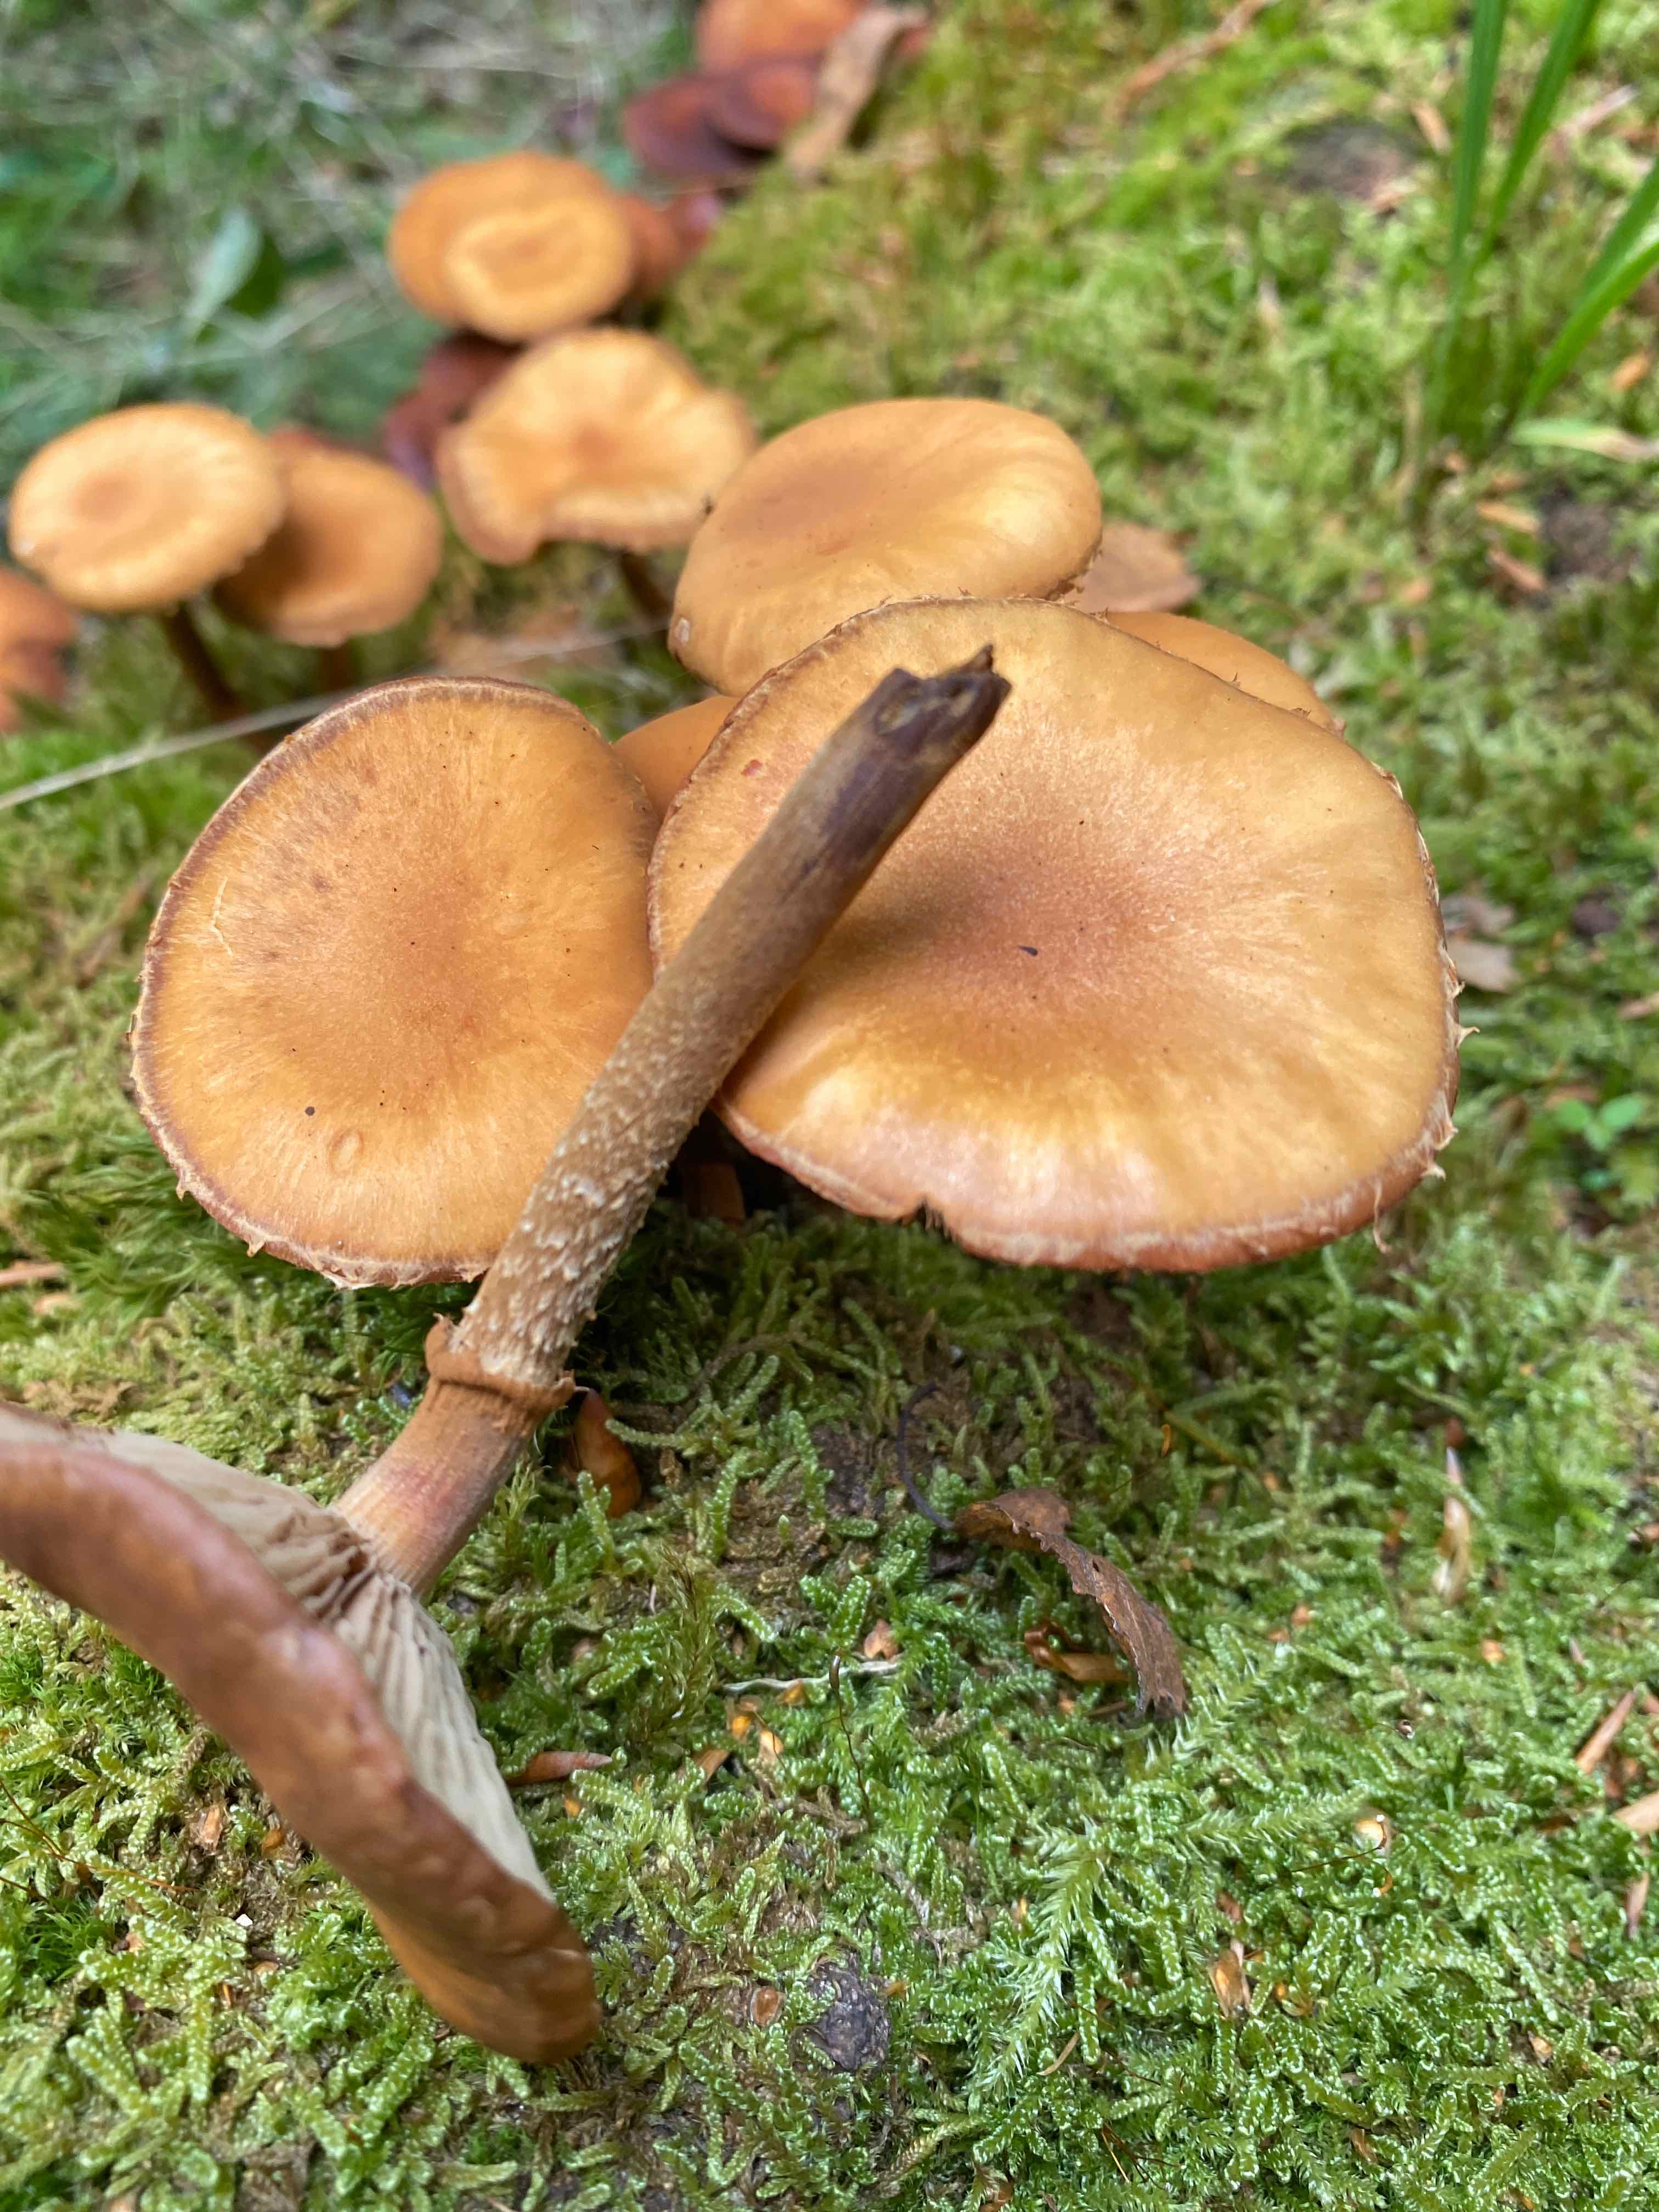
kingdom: Fungi
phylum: Basidiomycota
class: Agaricomycetes
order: Agaricales
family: Strophariaceae
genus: Kuehneromyces
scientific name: Kuehneromyces mutabilis
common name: foranderlig skælhat
